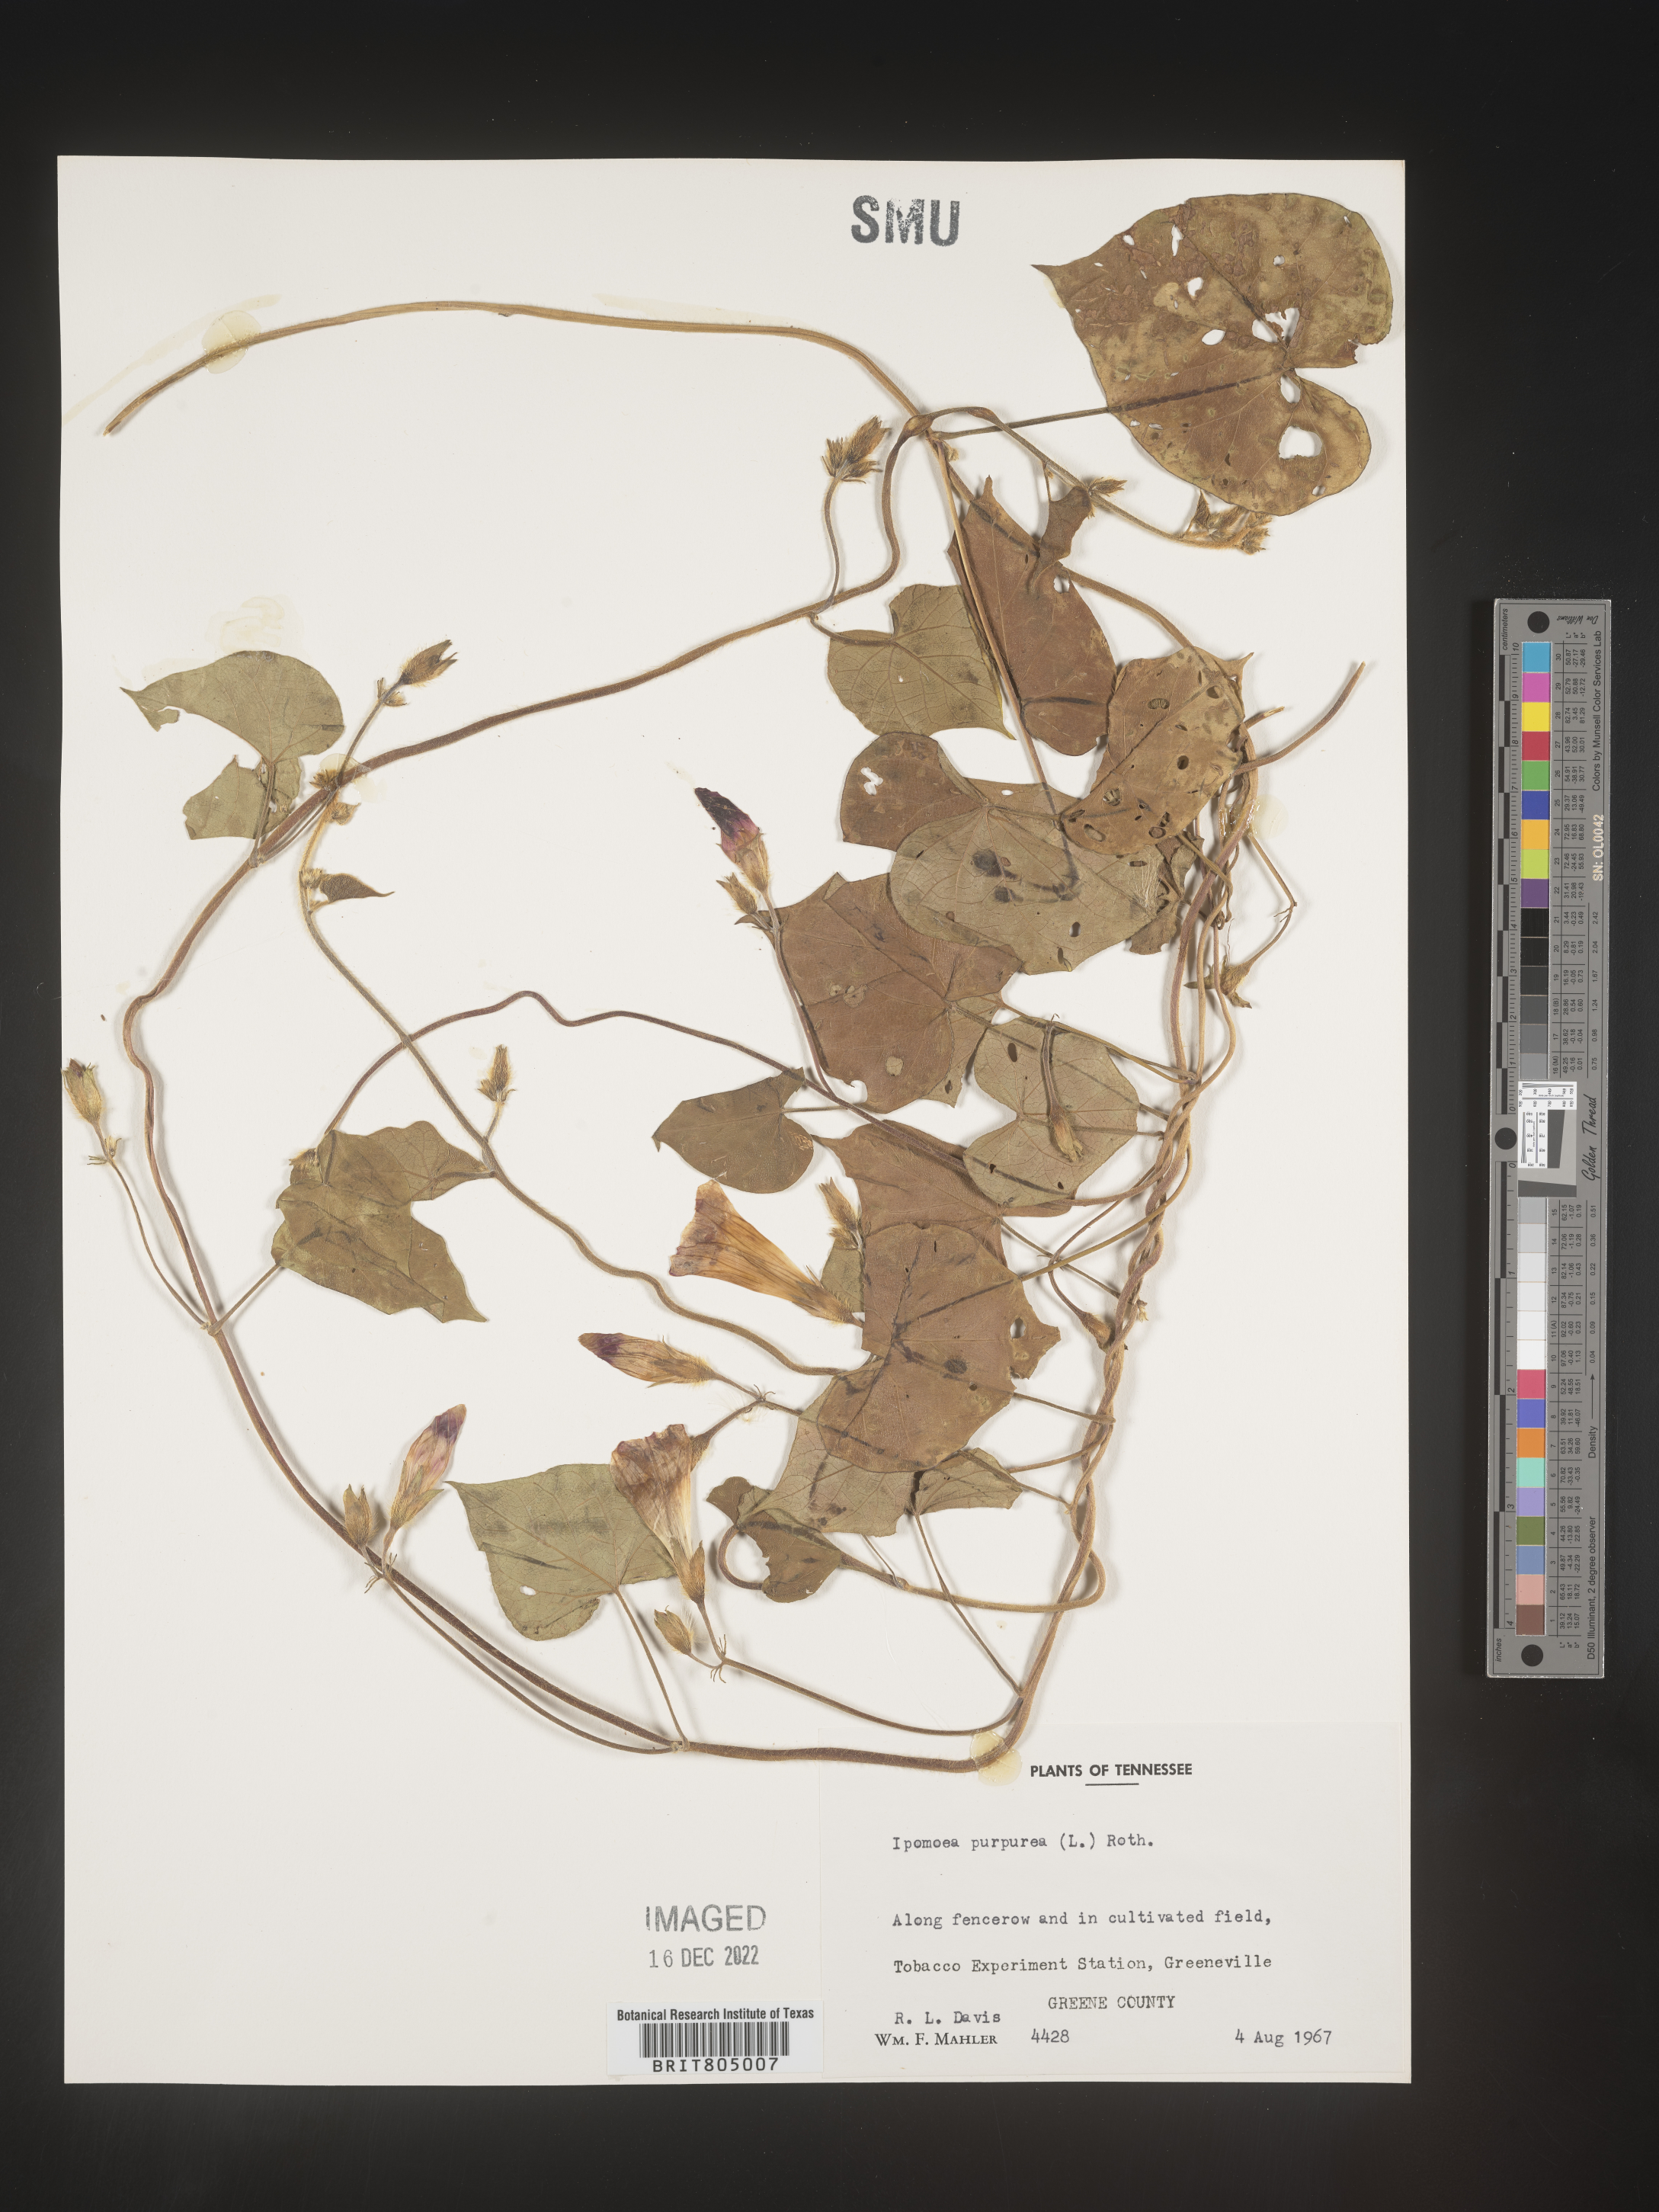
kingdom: Plantae
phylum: Tracheophyta
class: Magnoliopsida
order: Solanales
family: Convolvulaceae
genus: Ipomoea
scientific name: Ipomoea purpurea
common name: Common morning-glory
